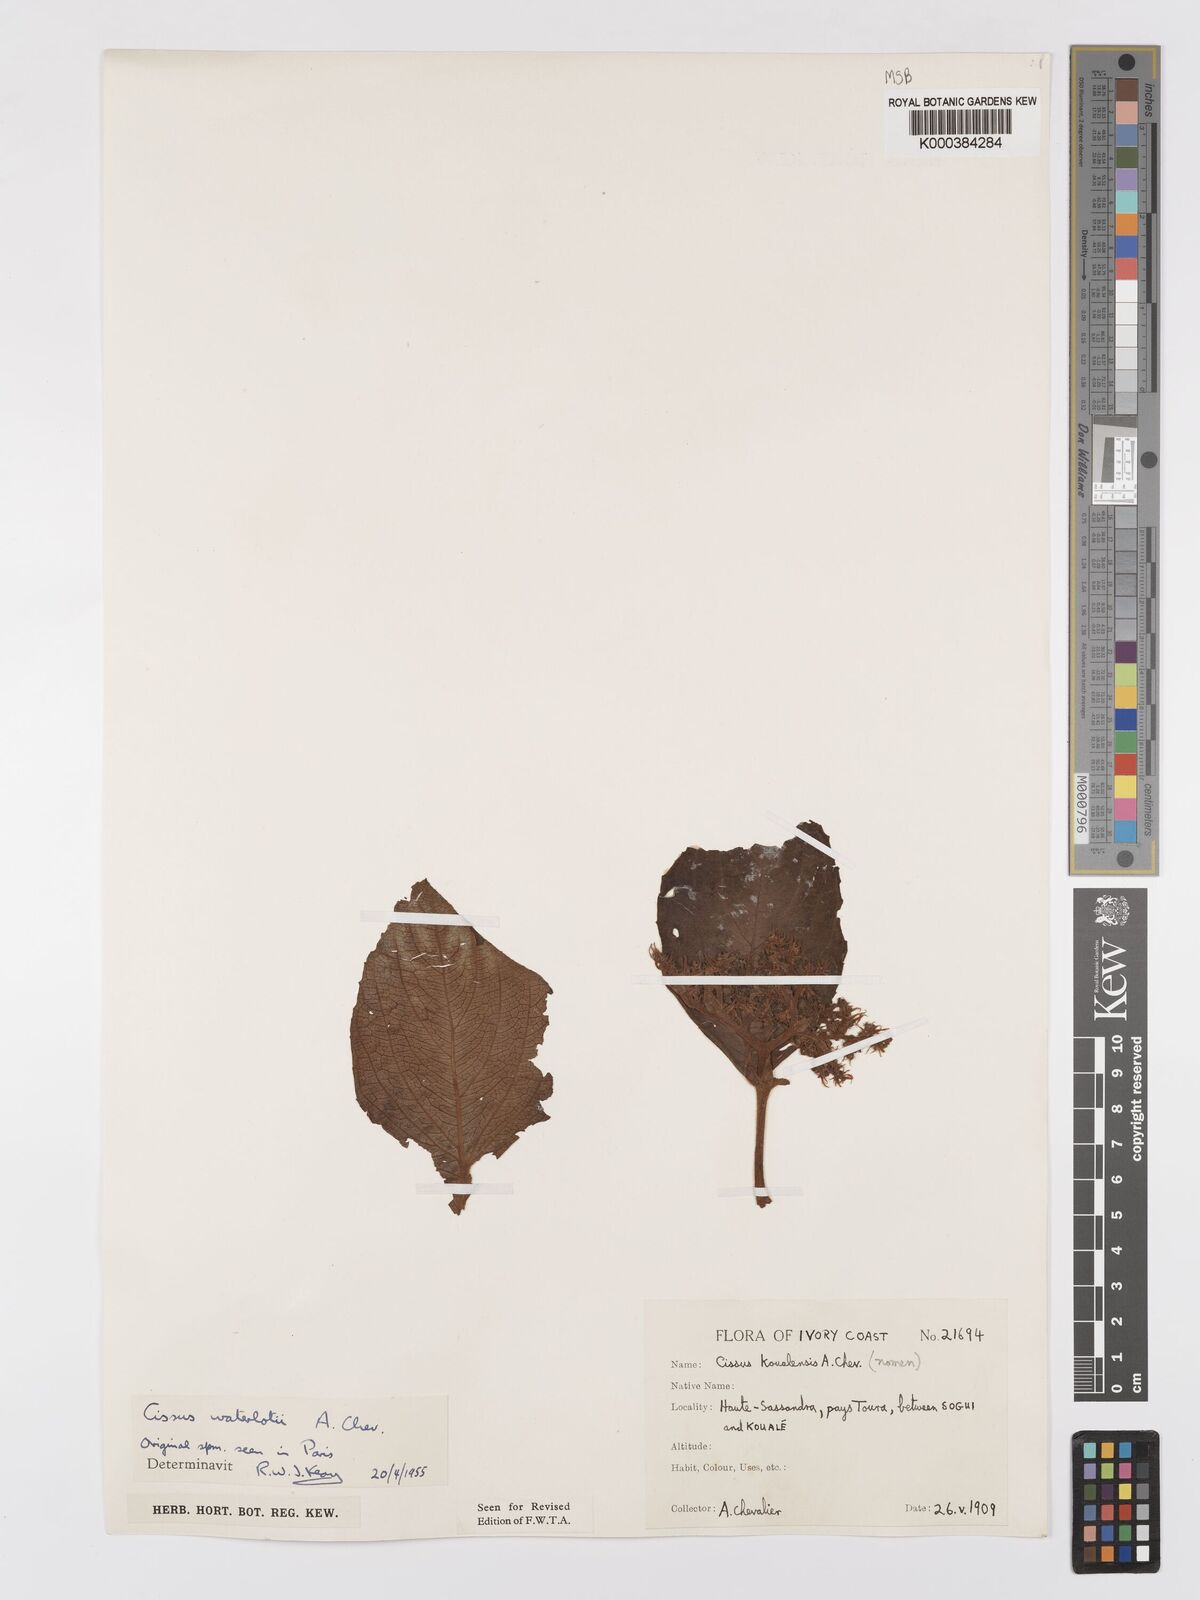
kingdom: Plantae
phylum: Tracheophyta
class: Magnoliopsida
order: Vitales
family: Vitaceae
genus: Cyphostemma
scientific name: Cyphostemma waterlotii
